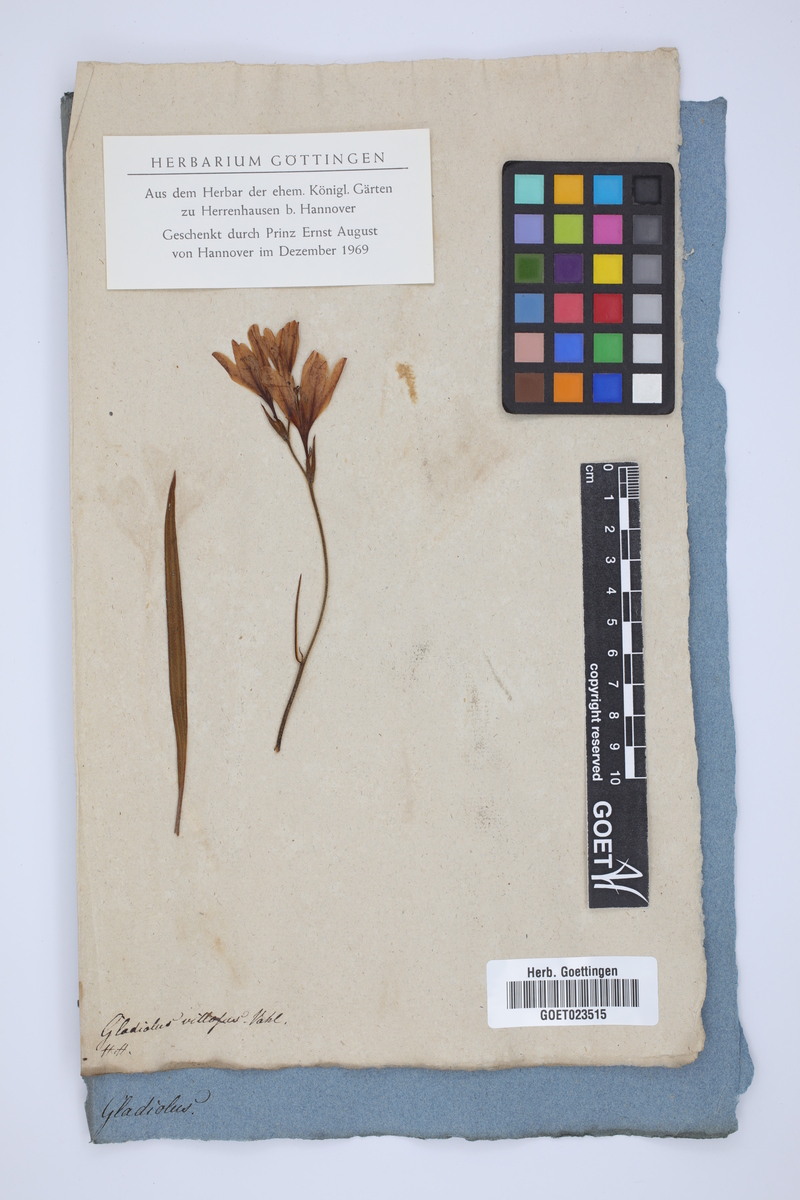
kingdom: Plantae
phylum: Tracheophyta
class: Liliopsida
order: Asparagales
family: Iridaceae
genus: Babiana
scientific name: Babiana nervosa
